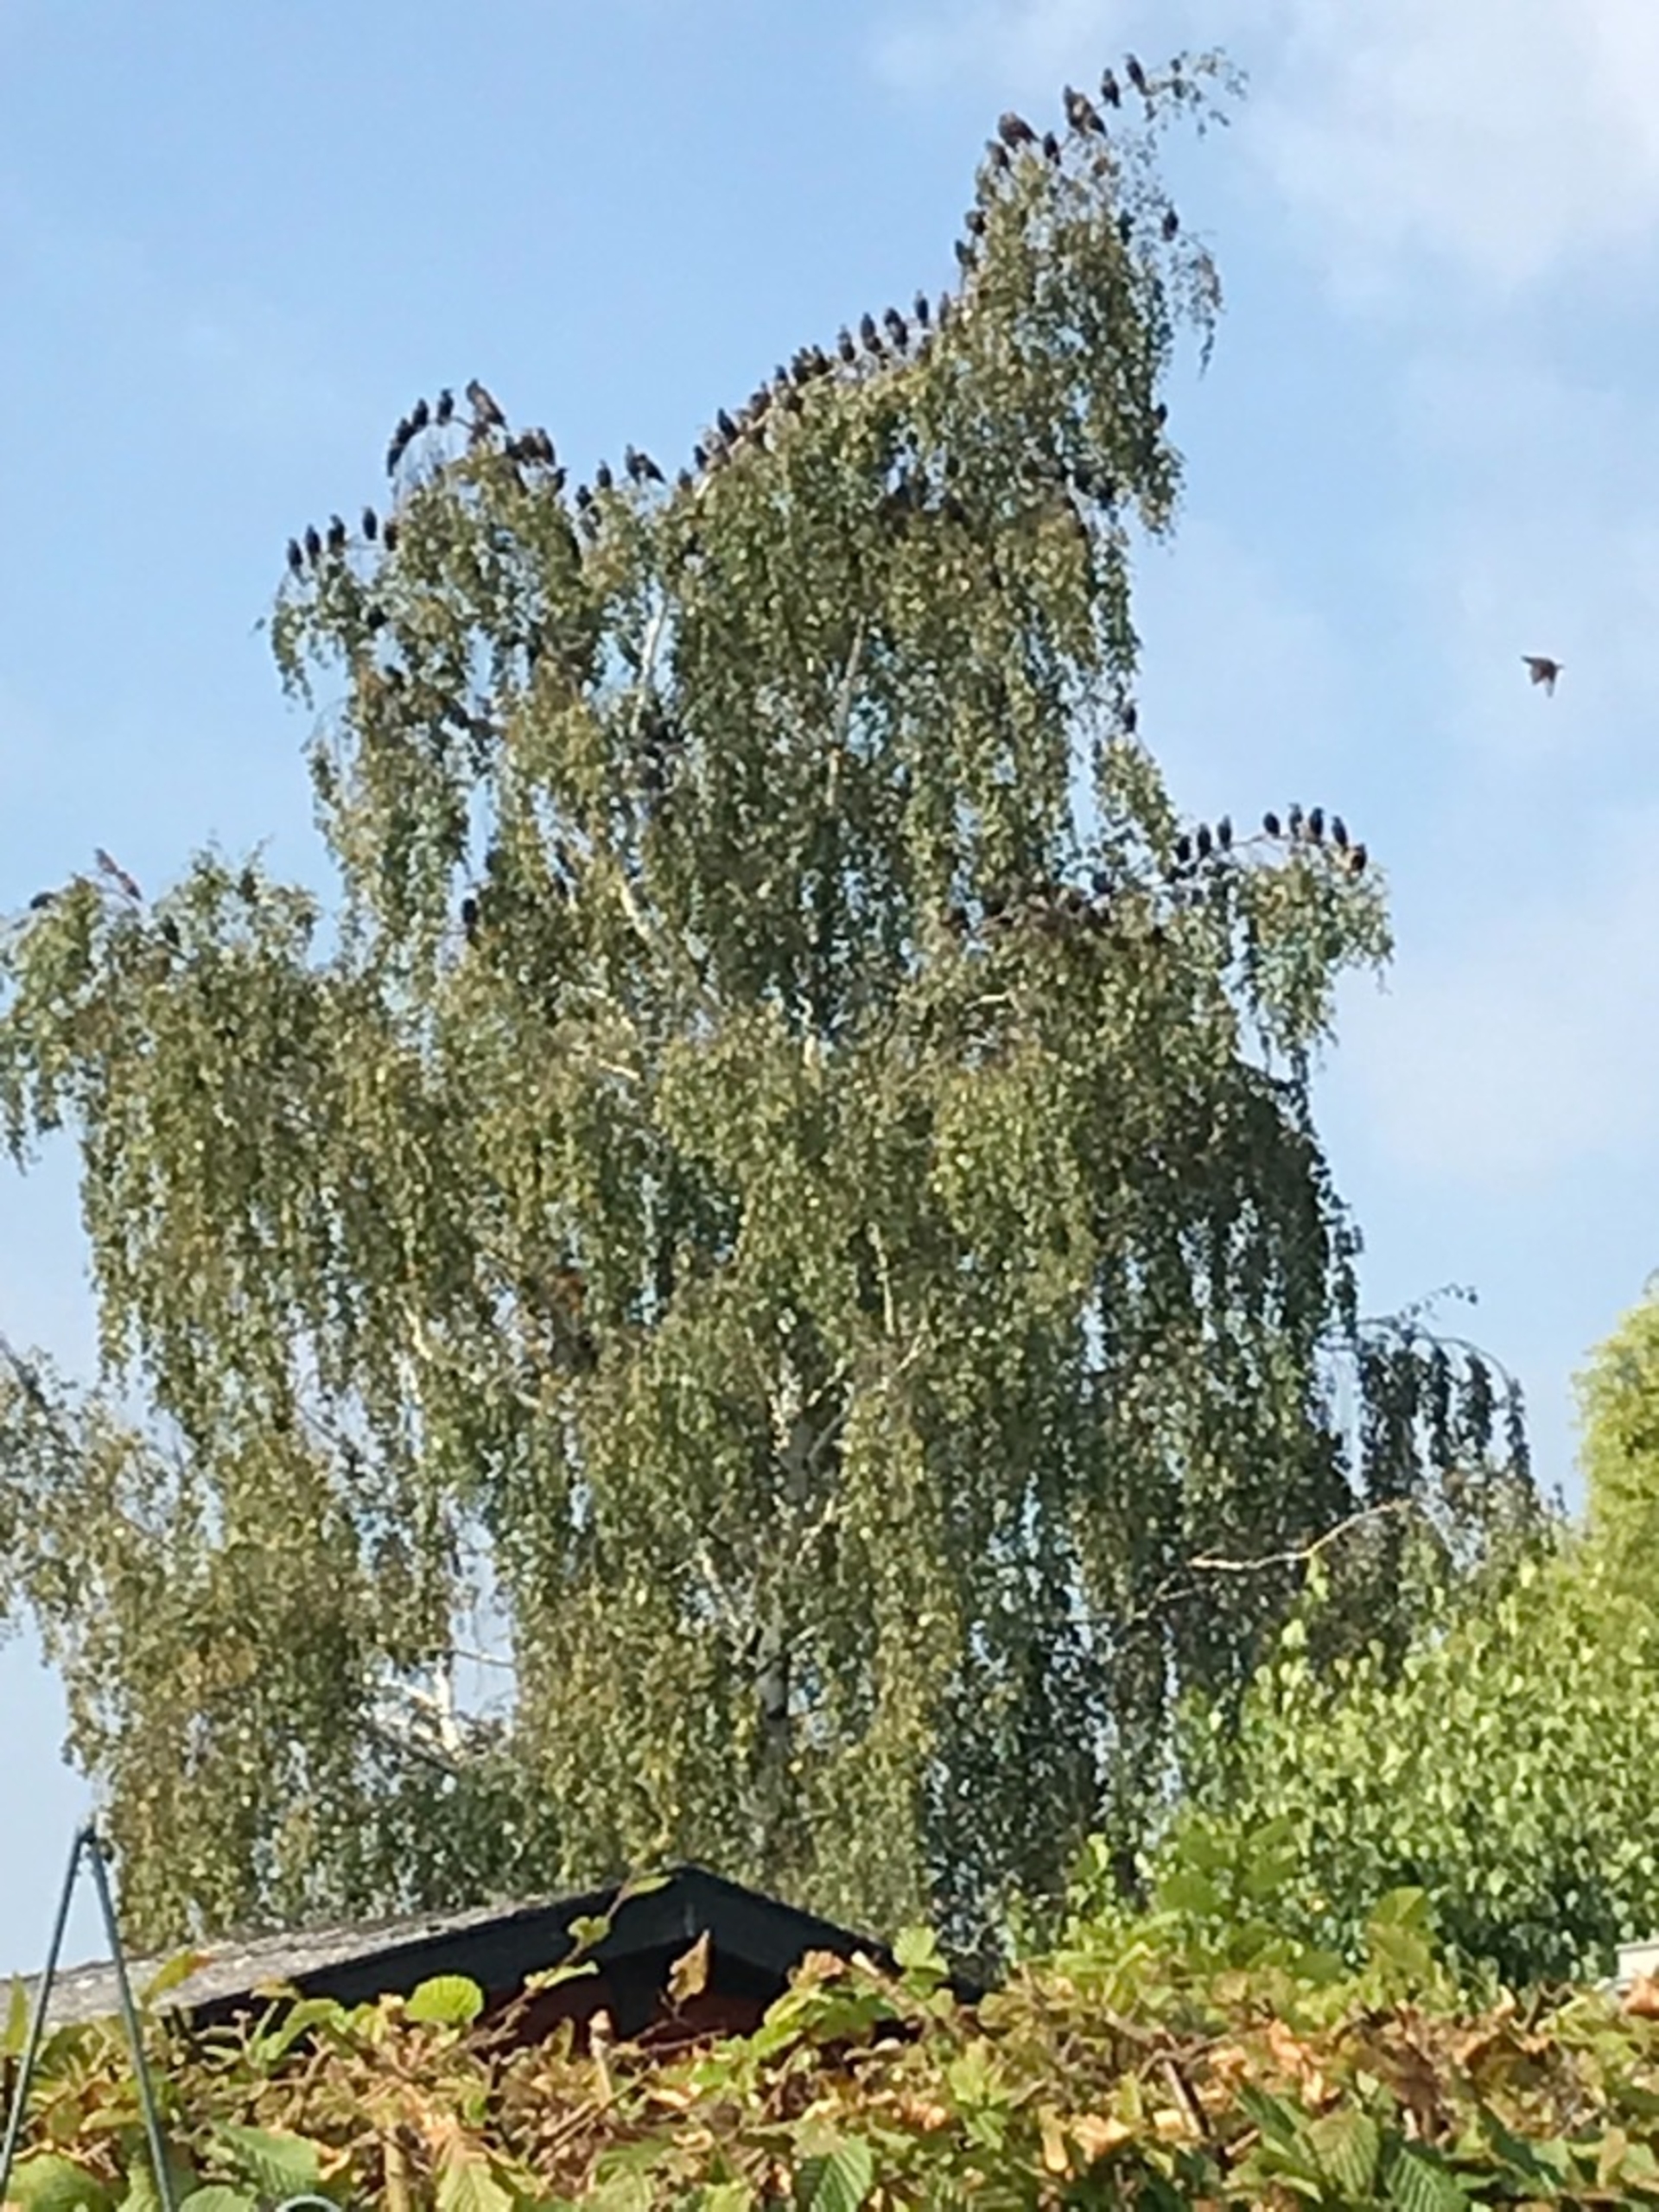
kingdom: Animalia
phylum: Chordata
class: Aves
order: Passeriformes
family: Sturnidae
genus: Sturnus
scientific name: Sturnus vulgaris
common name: Stær
